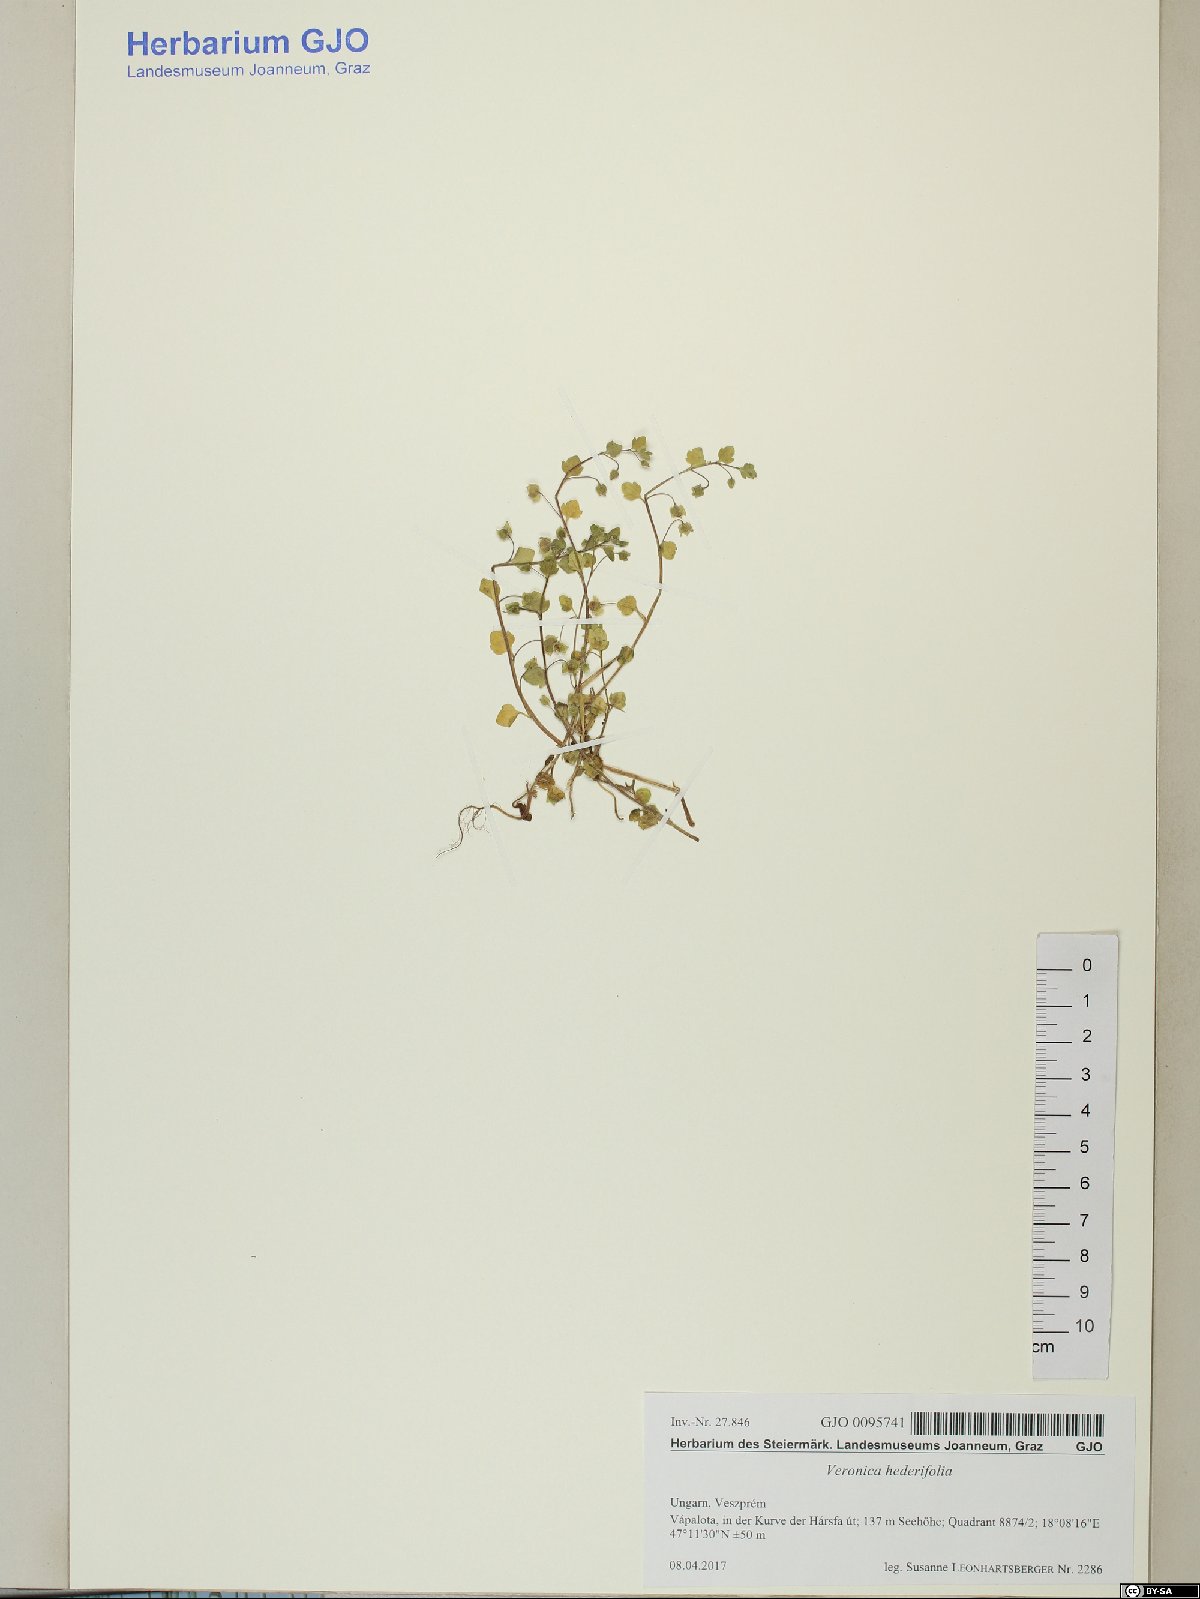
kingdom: Plantae
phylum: Tracheophyta
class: Magnoliopsida
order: Lamiales
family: Plantaginaceae
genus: Veronica
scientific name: Veronica hederifolia
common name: Ivy-leaved speedwell
